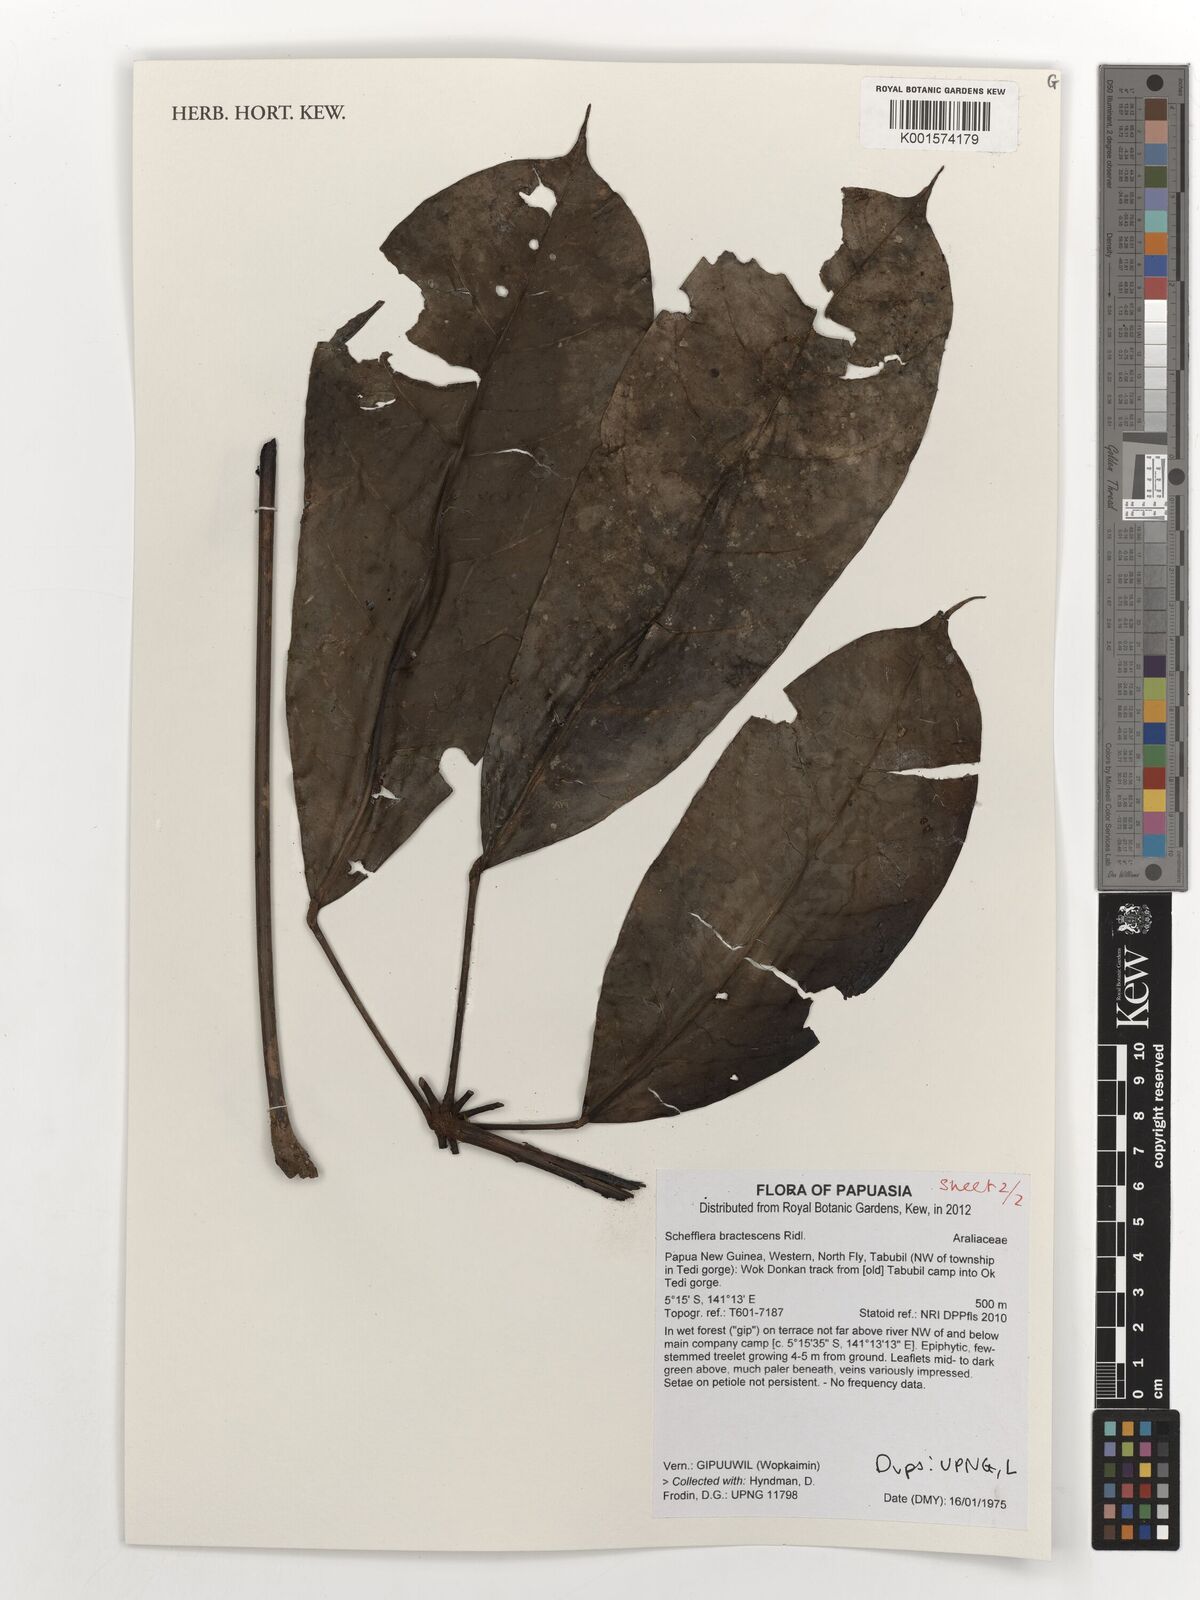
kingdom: Plantae
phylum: Tracheophyta
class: Magnoliopsida
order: Apiales
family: Araliaceae
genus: Heptapleurum
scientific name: Heptapleurum bractescens
